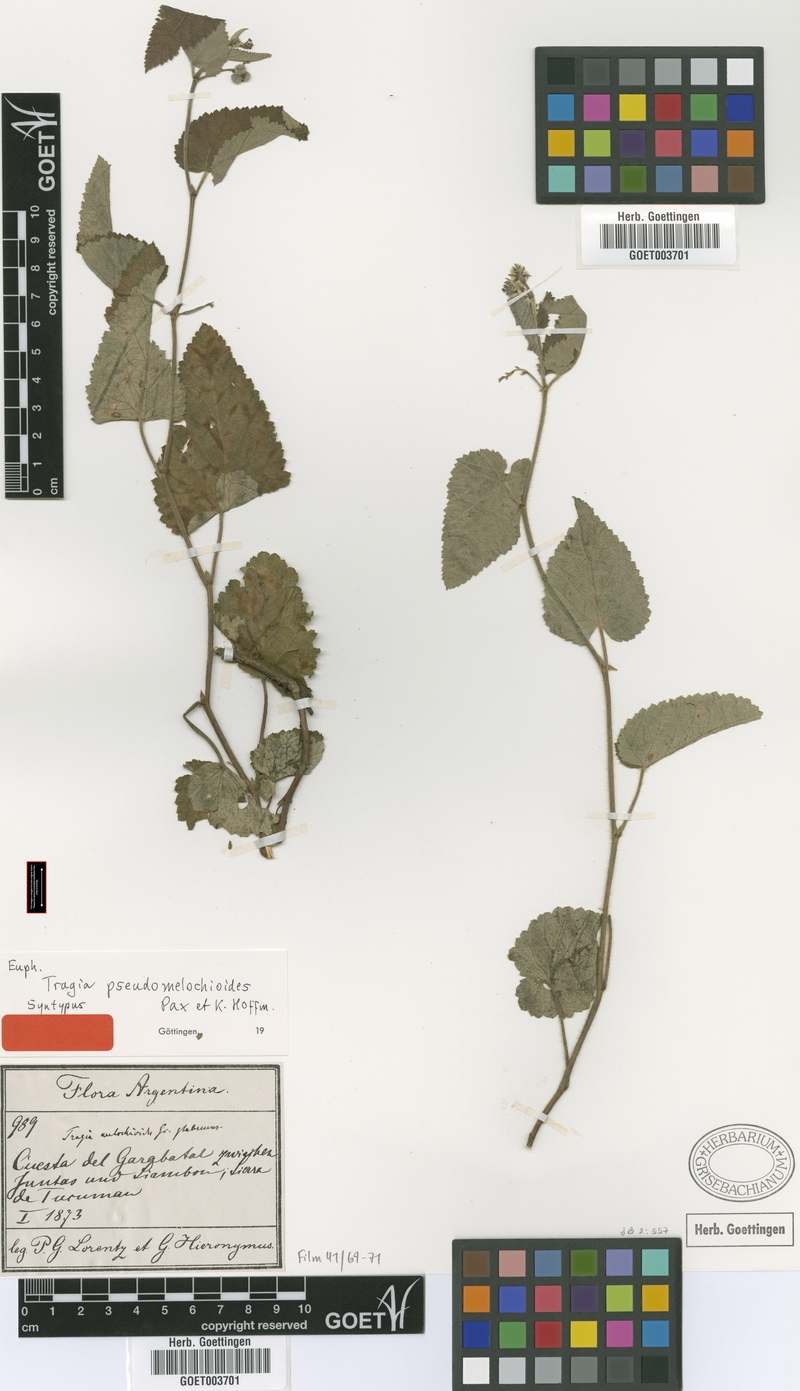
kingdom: Plantae
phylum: Tracheophyta
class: Magnoliopsida
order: Malpighiales
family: Euphorbiaceae
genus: Tragia
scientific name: Tragia melochioides
